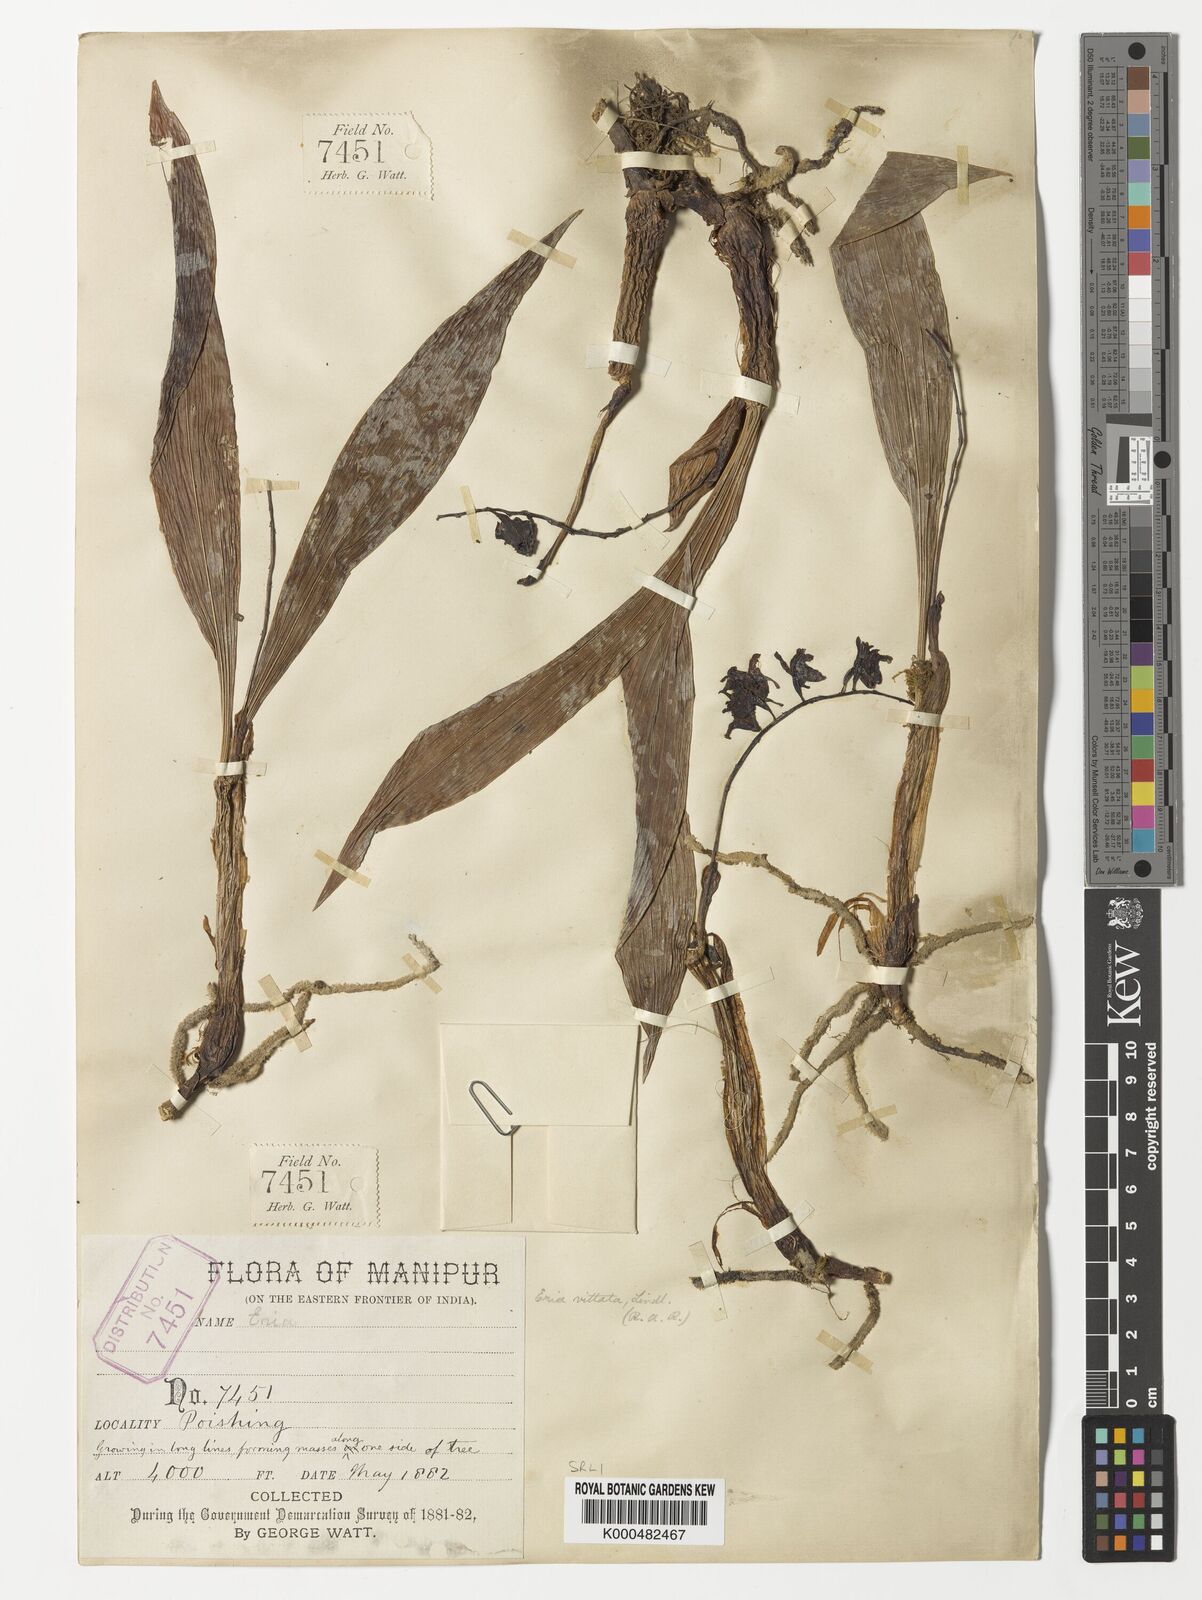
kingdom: Plantae
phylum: Tracheophyta
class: Liliopsida
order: Asparagales
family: Orchidaceae
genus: Eria
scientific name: Eria vittata
